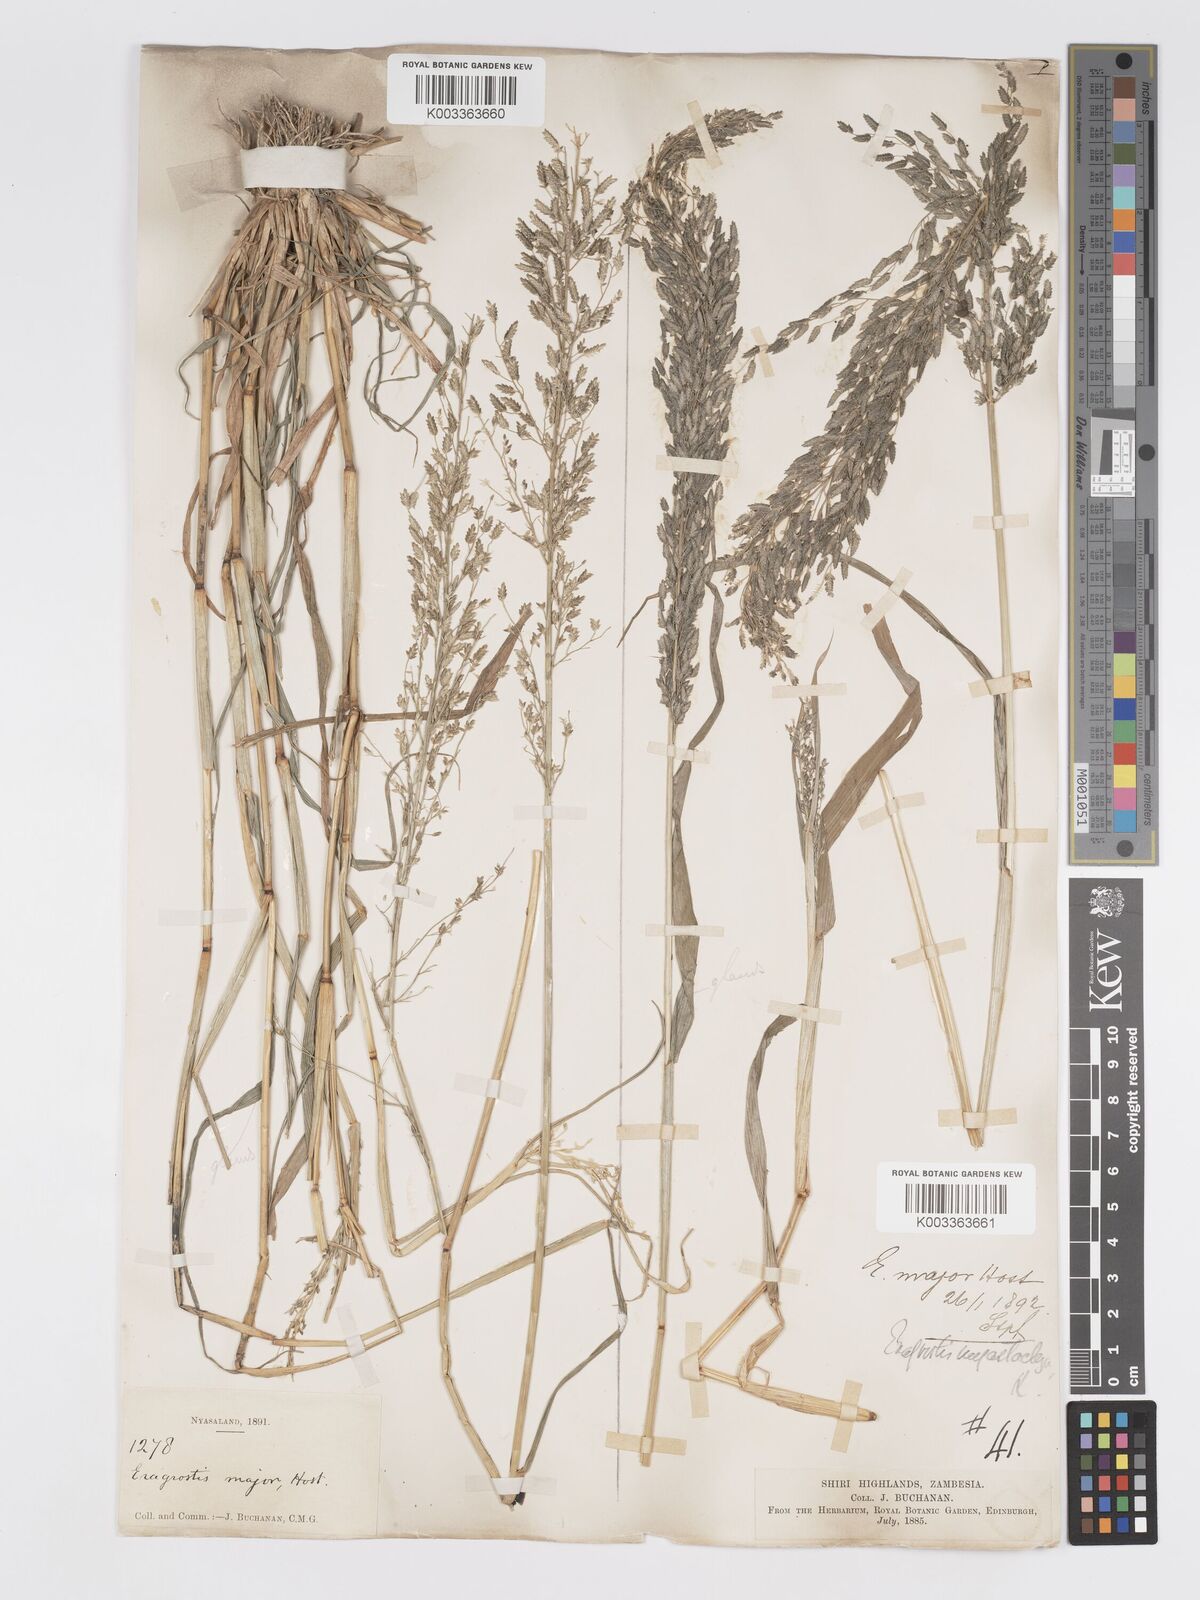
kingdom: Plantae
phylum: Tracheophyta
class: Liliopsida
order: Poales
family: Poaceae
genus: Eragrostis
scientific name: Eragrostis cilianensis
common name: Stinkgrass
